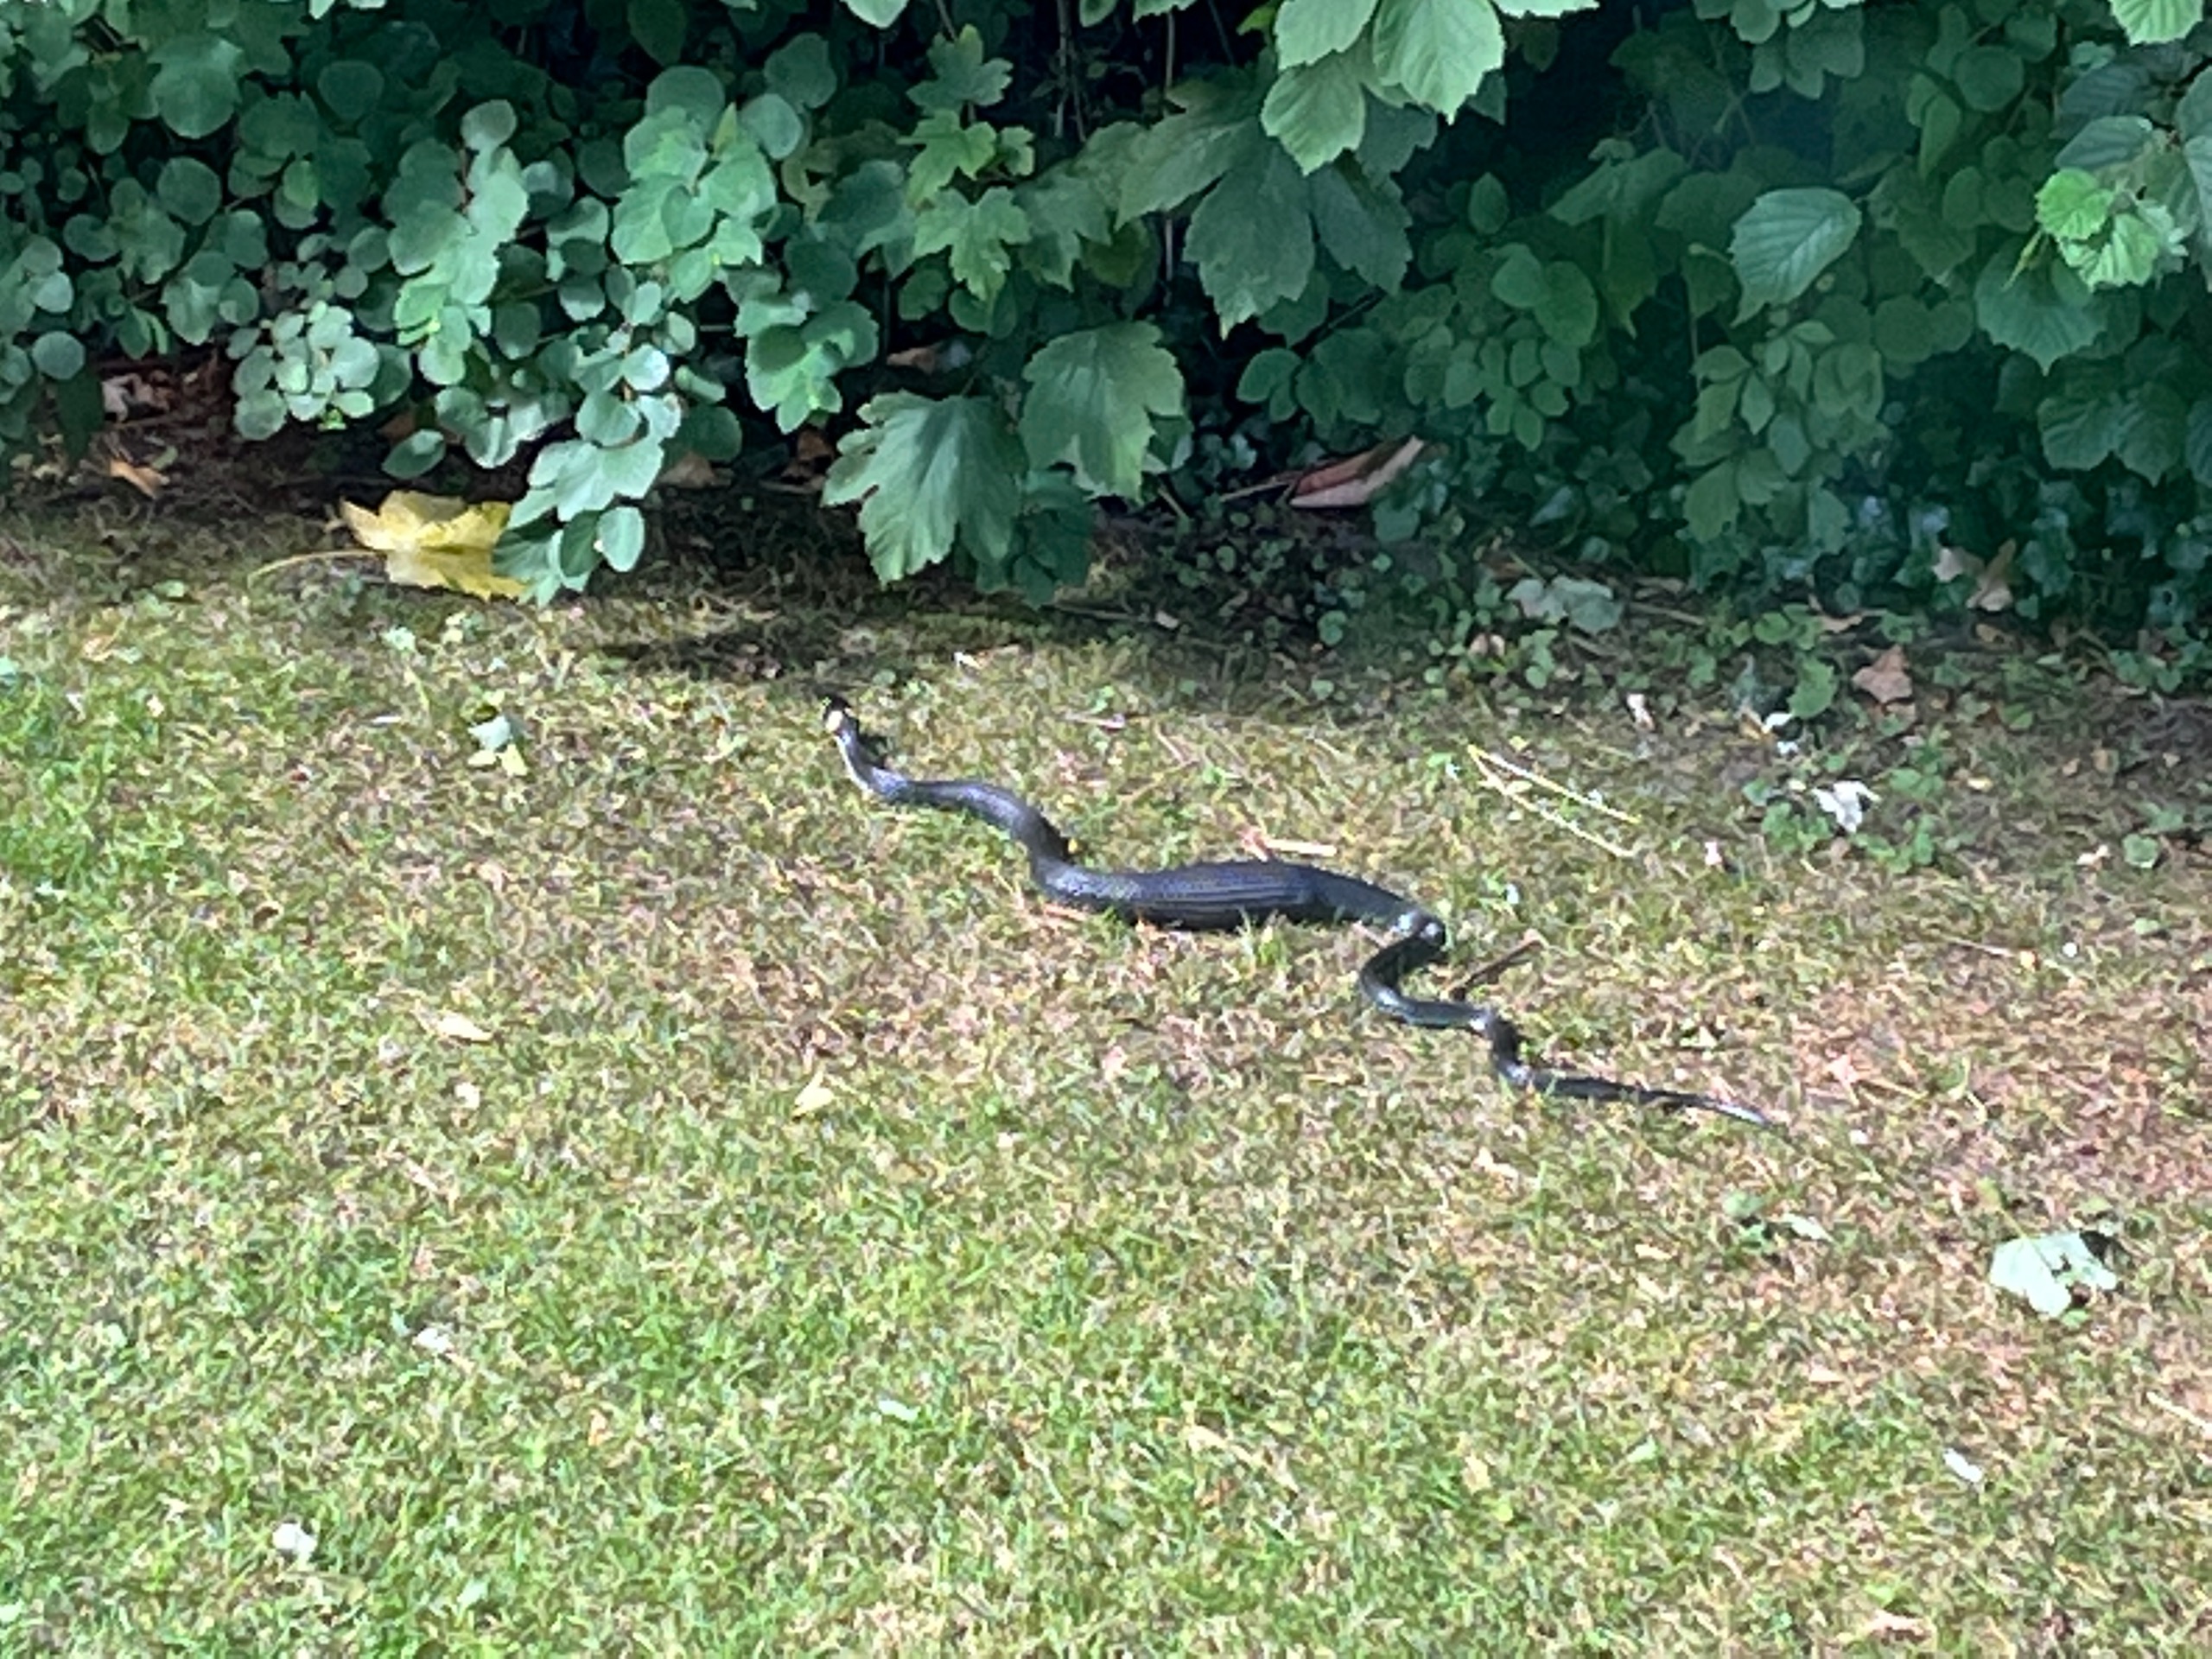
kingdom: Animalia
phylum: Chordata
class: Squamata
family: Colubridae
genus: Natrix
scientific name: Natrix natrix
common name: Snog
